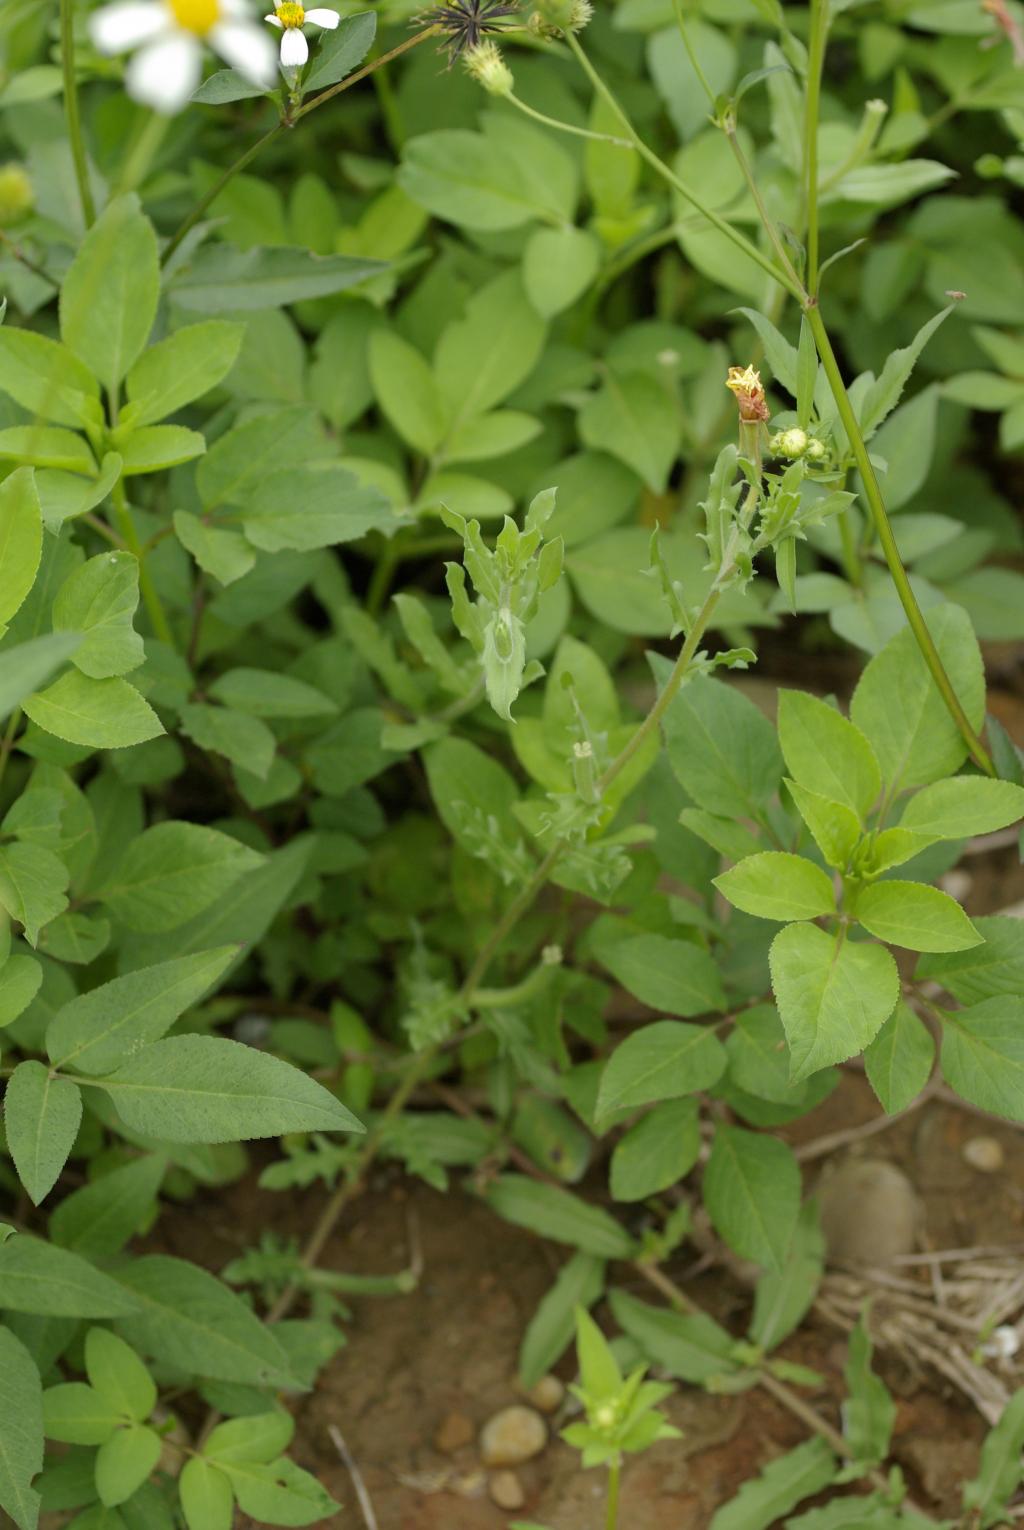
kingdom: Plantae
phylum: Tracheophyta
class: Magnoliopsida
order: Myrtales
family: Onagraceae
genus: Oenothera
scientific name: Oenothera laciniata
